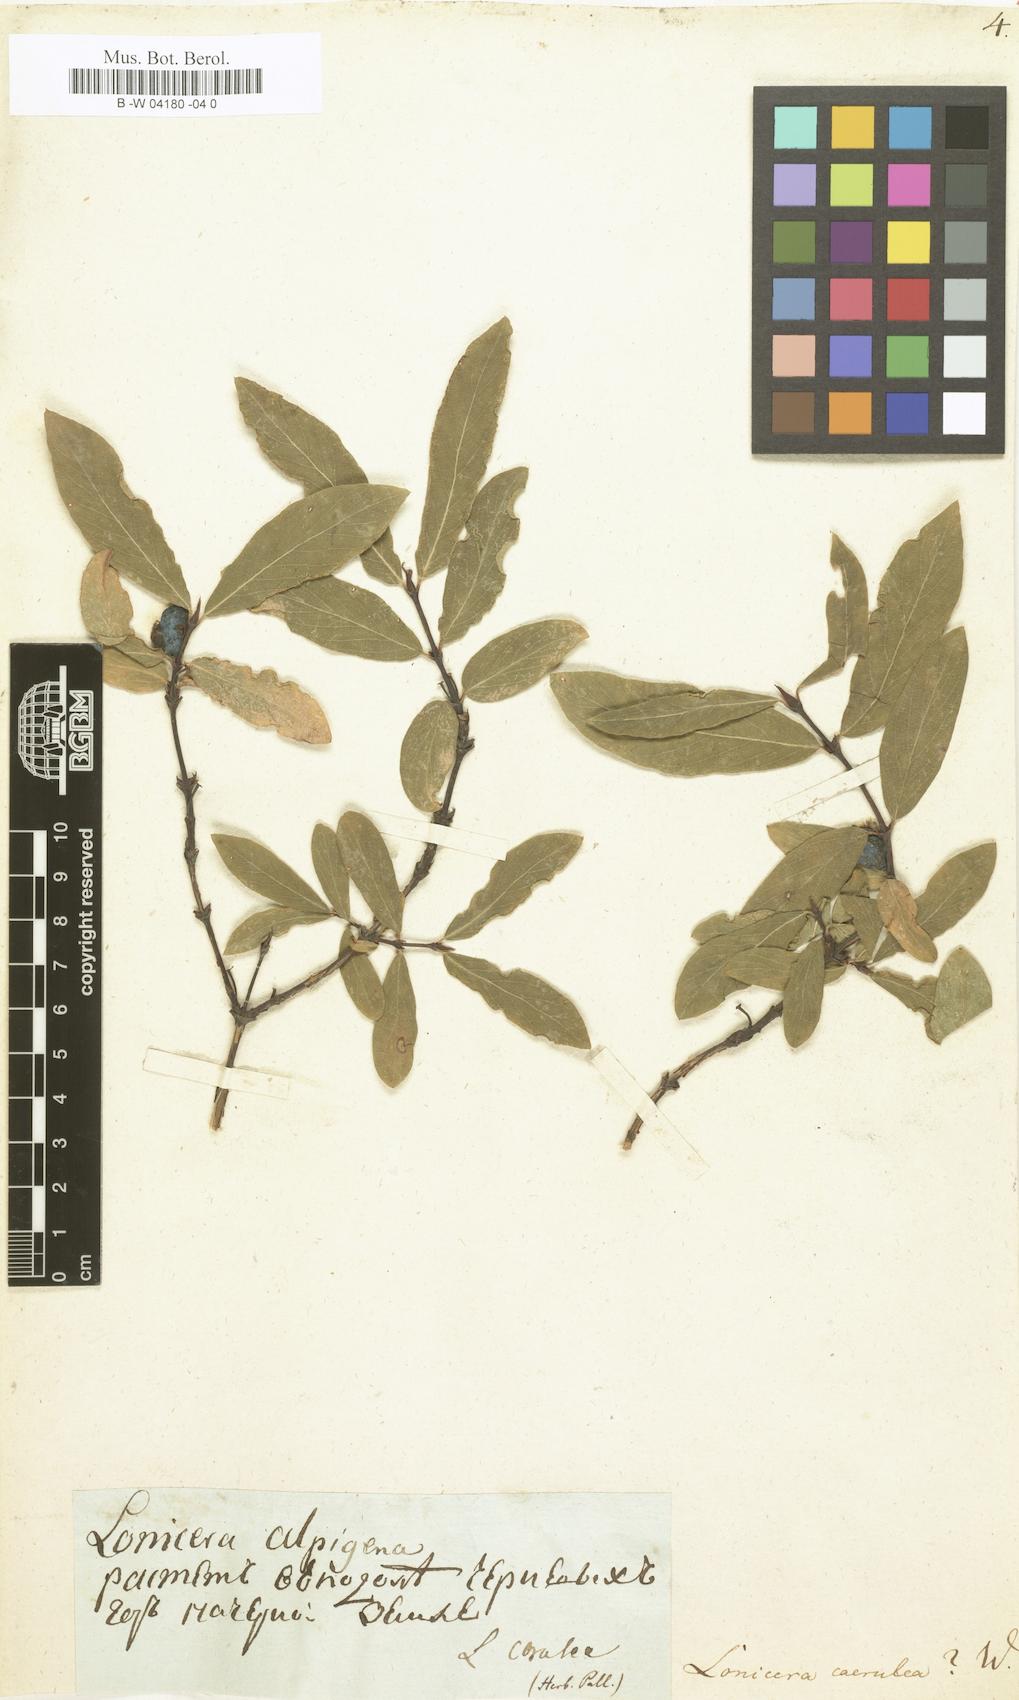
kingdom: Plantae
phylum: Tracheophyta
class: Magnoliopsida
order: Dipsacales
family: Caprifoliaceae
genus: Lonicera
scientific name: Lonicera caerulea
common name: Blue honeysuckle
